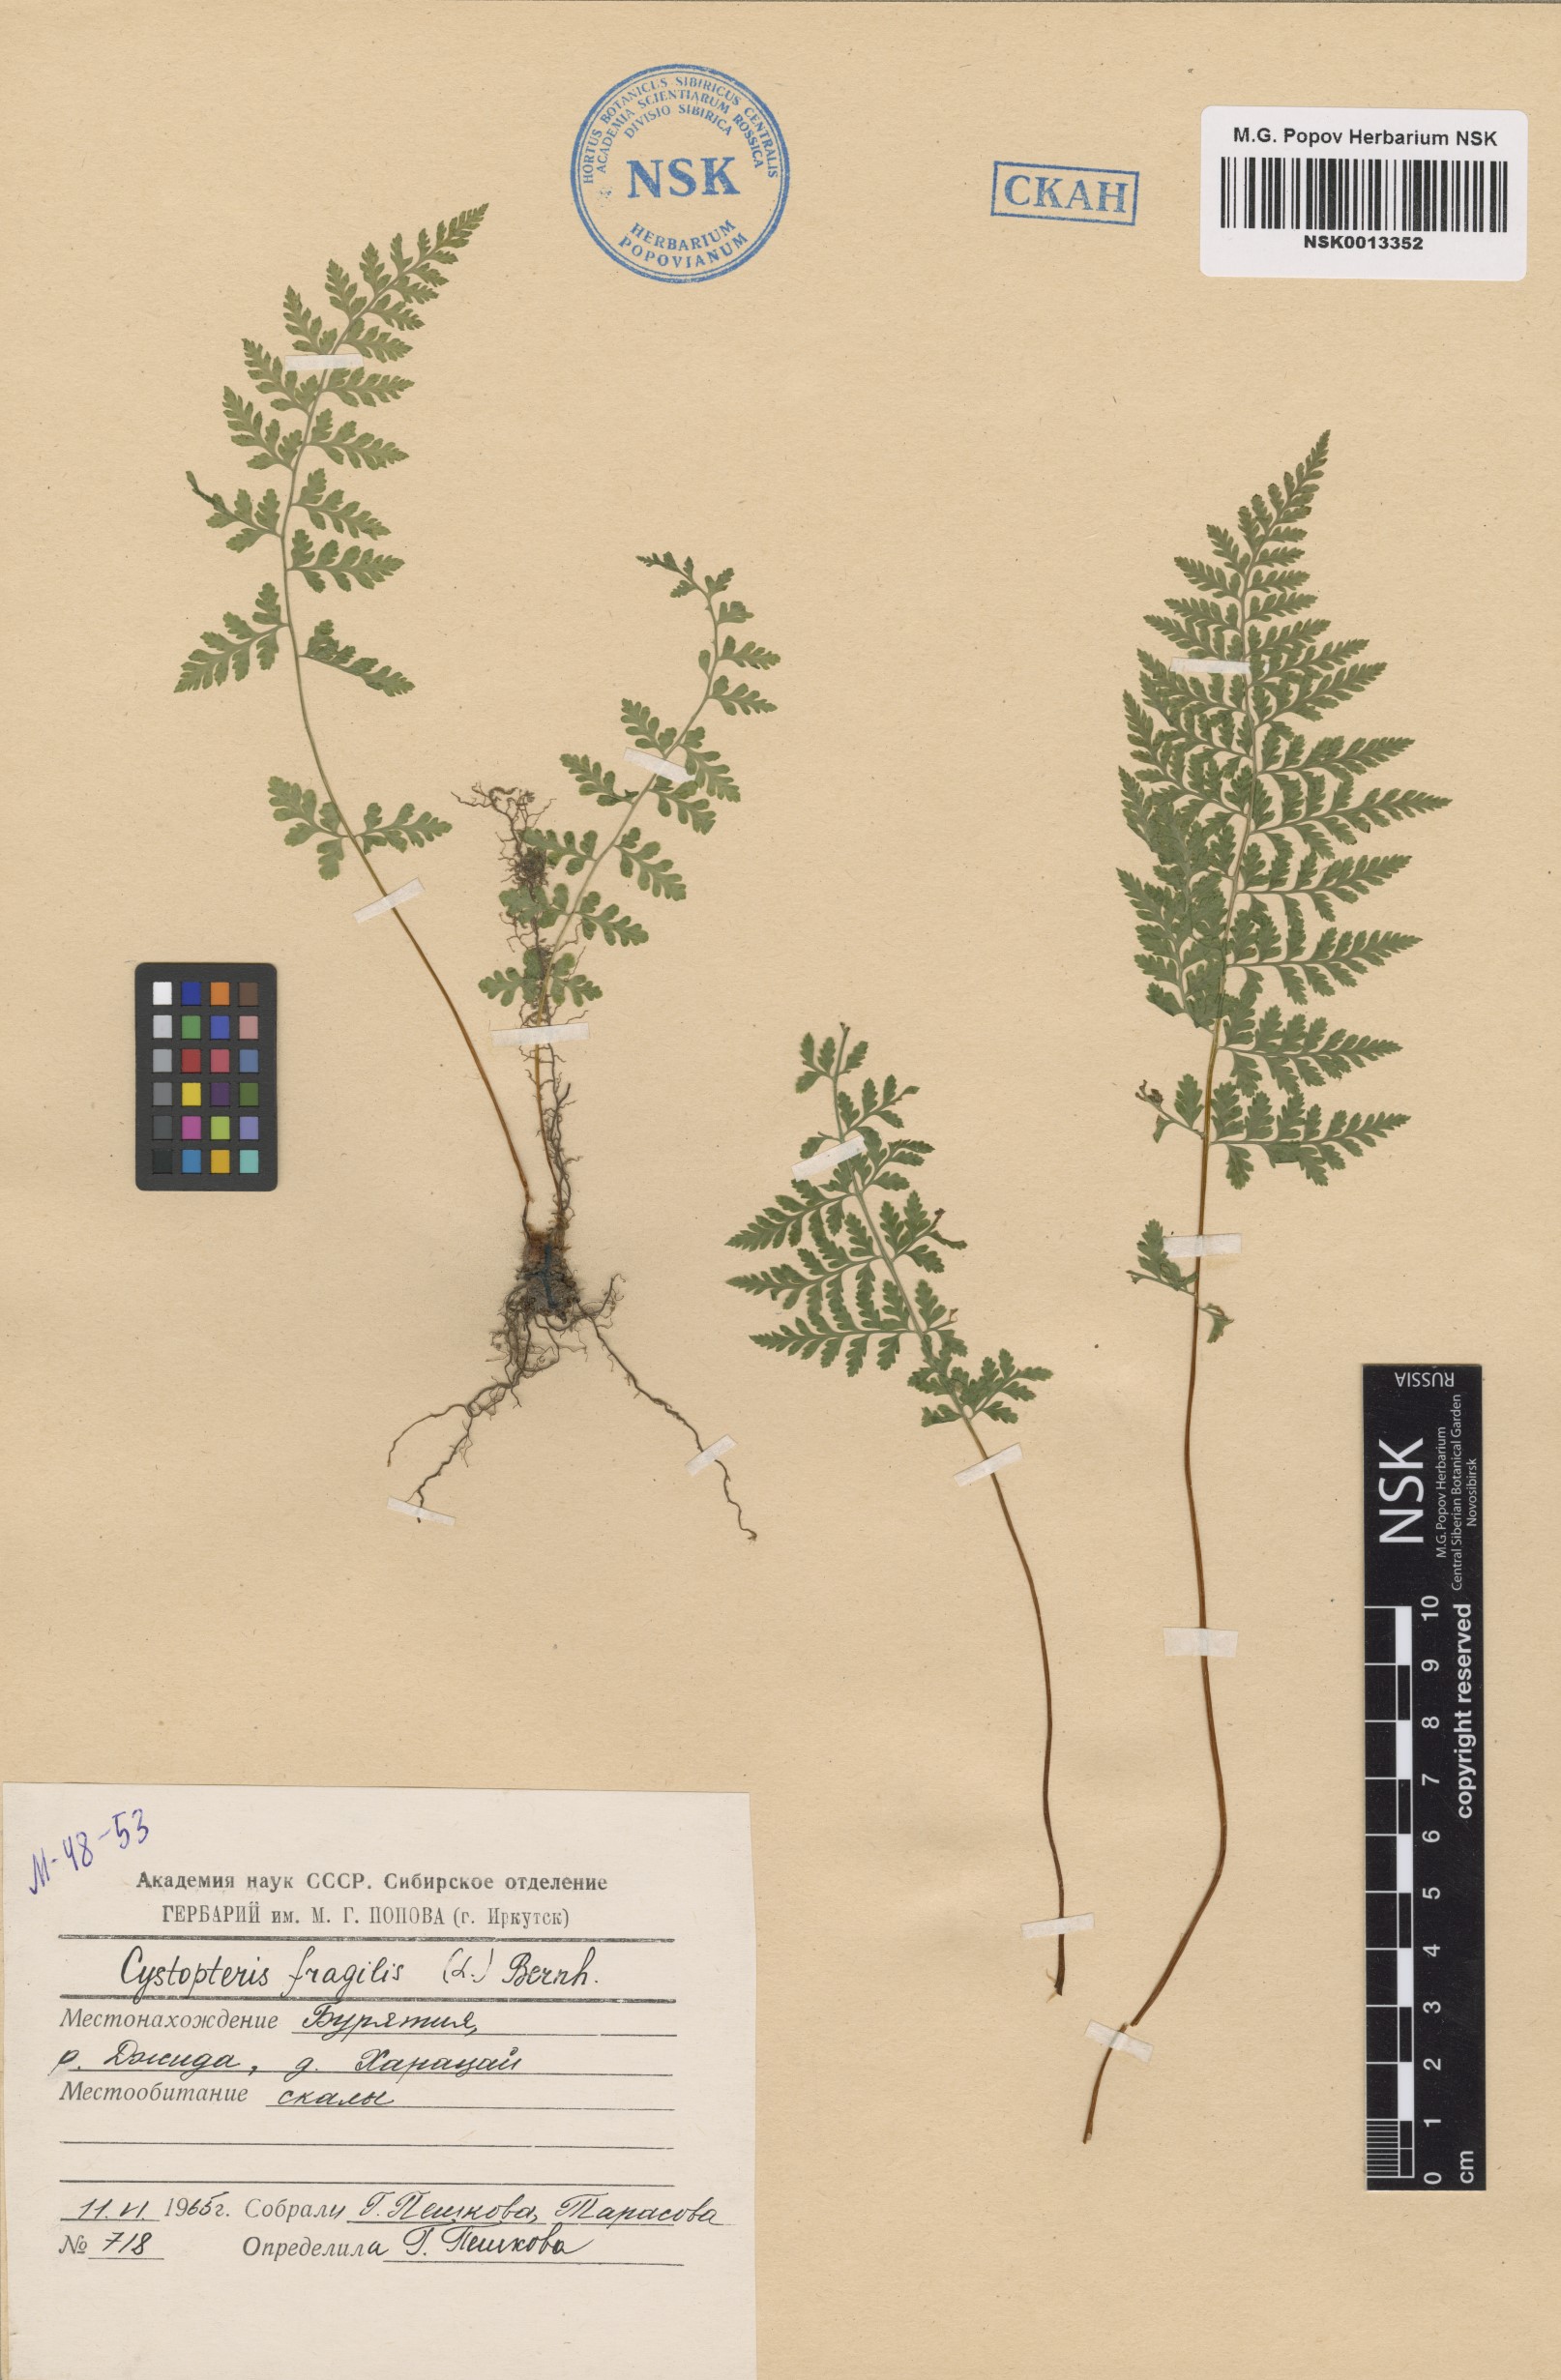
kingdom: Plantae
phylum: Tracheophyta
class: Polypodiopsida
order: Polypodiales
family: Cystopteridaceae
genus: Cystopteris
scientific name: Cystopteris fragilis
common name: Brittle bladder fern
